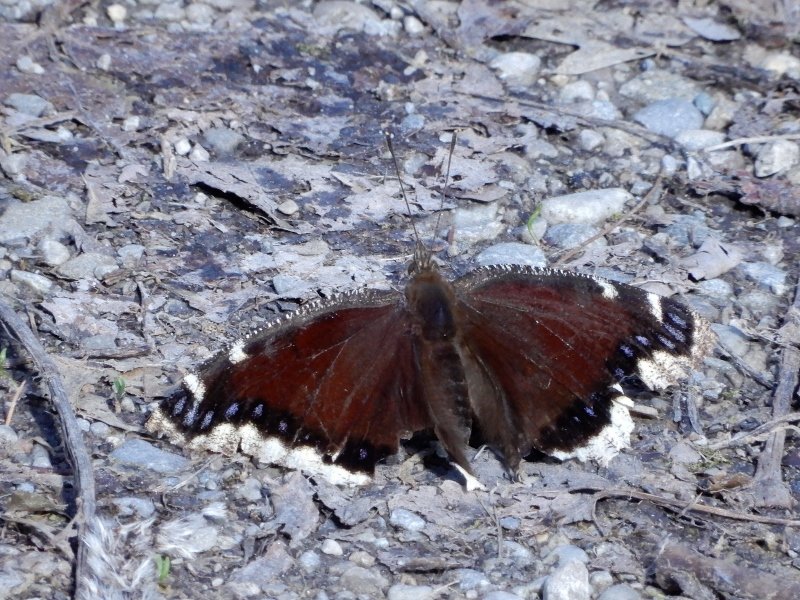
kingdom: Animalia
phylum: Arthropoda
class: Insecta
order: Lepidoptera
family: Nymphalidae
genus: Nymphalis
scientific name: Nymphalis antiopa
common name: Mourning Cloak
